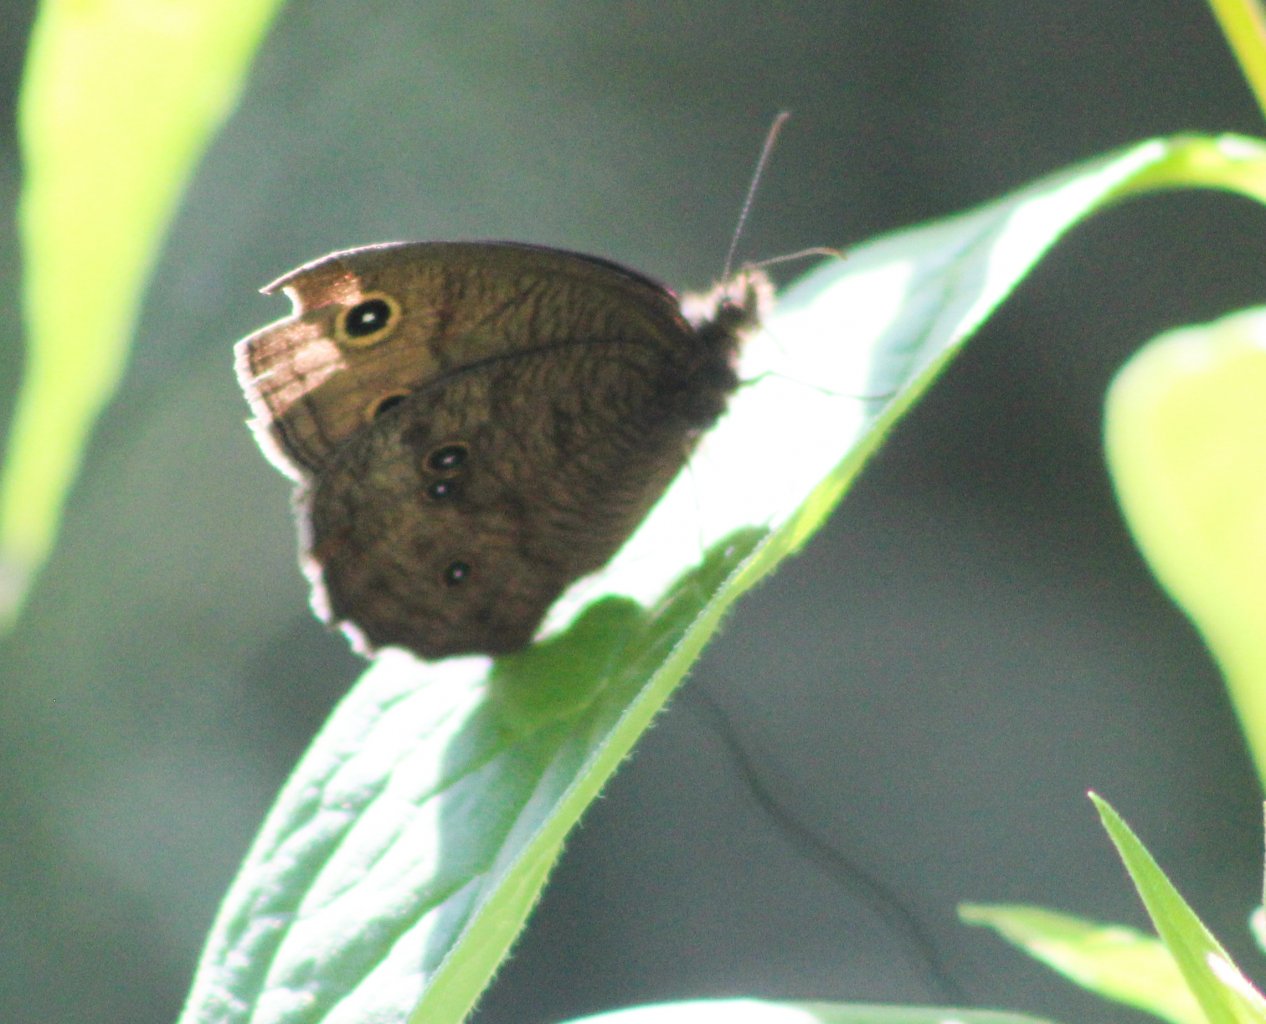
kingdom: Animalia
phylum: Arthropoda
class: Insecta
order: Lepidoptera
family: Nymphalidae
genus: Cercyonis
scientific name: Cercyonis pegala
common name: Common Wood-Nymph
